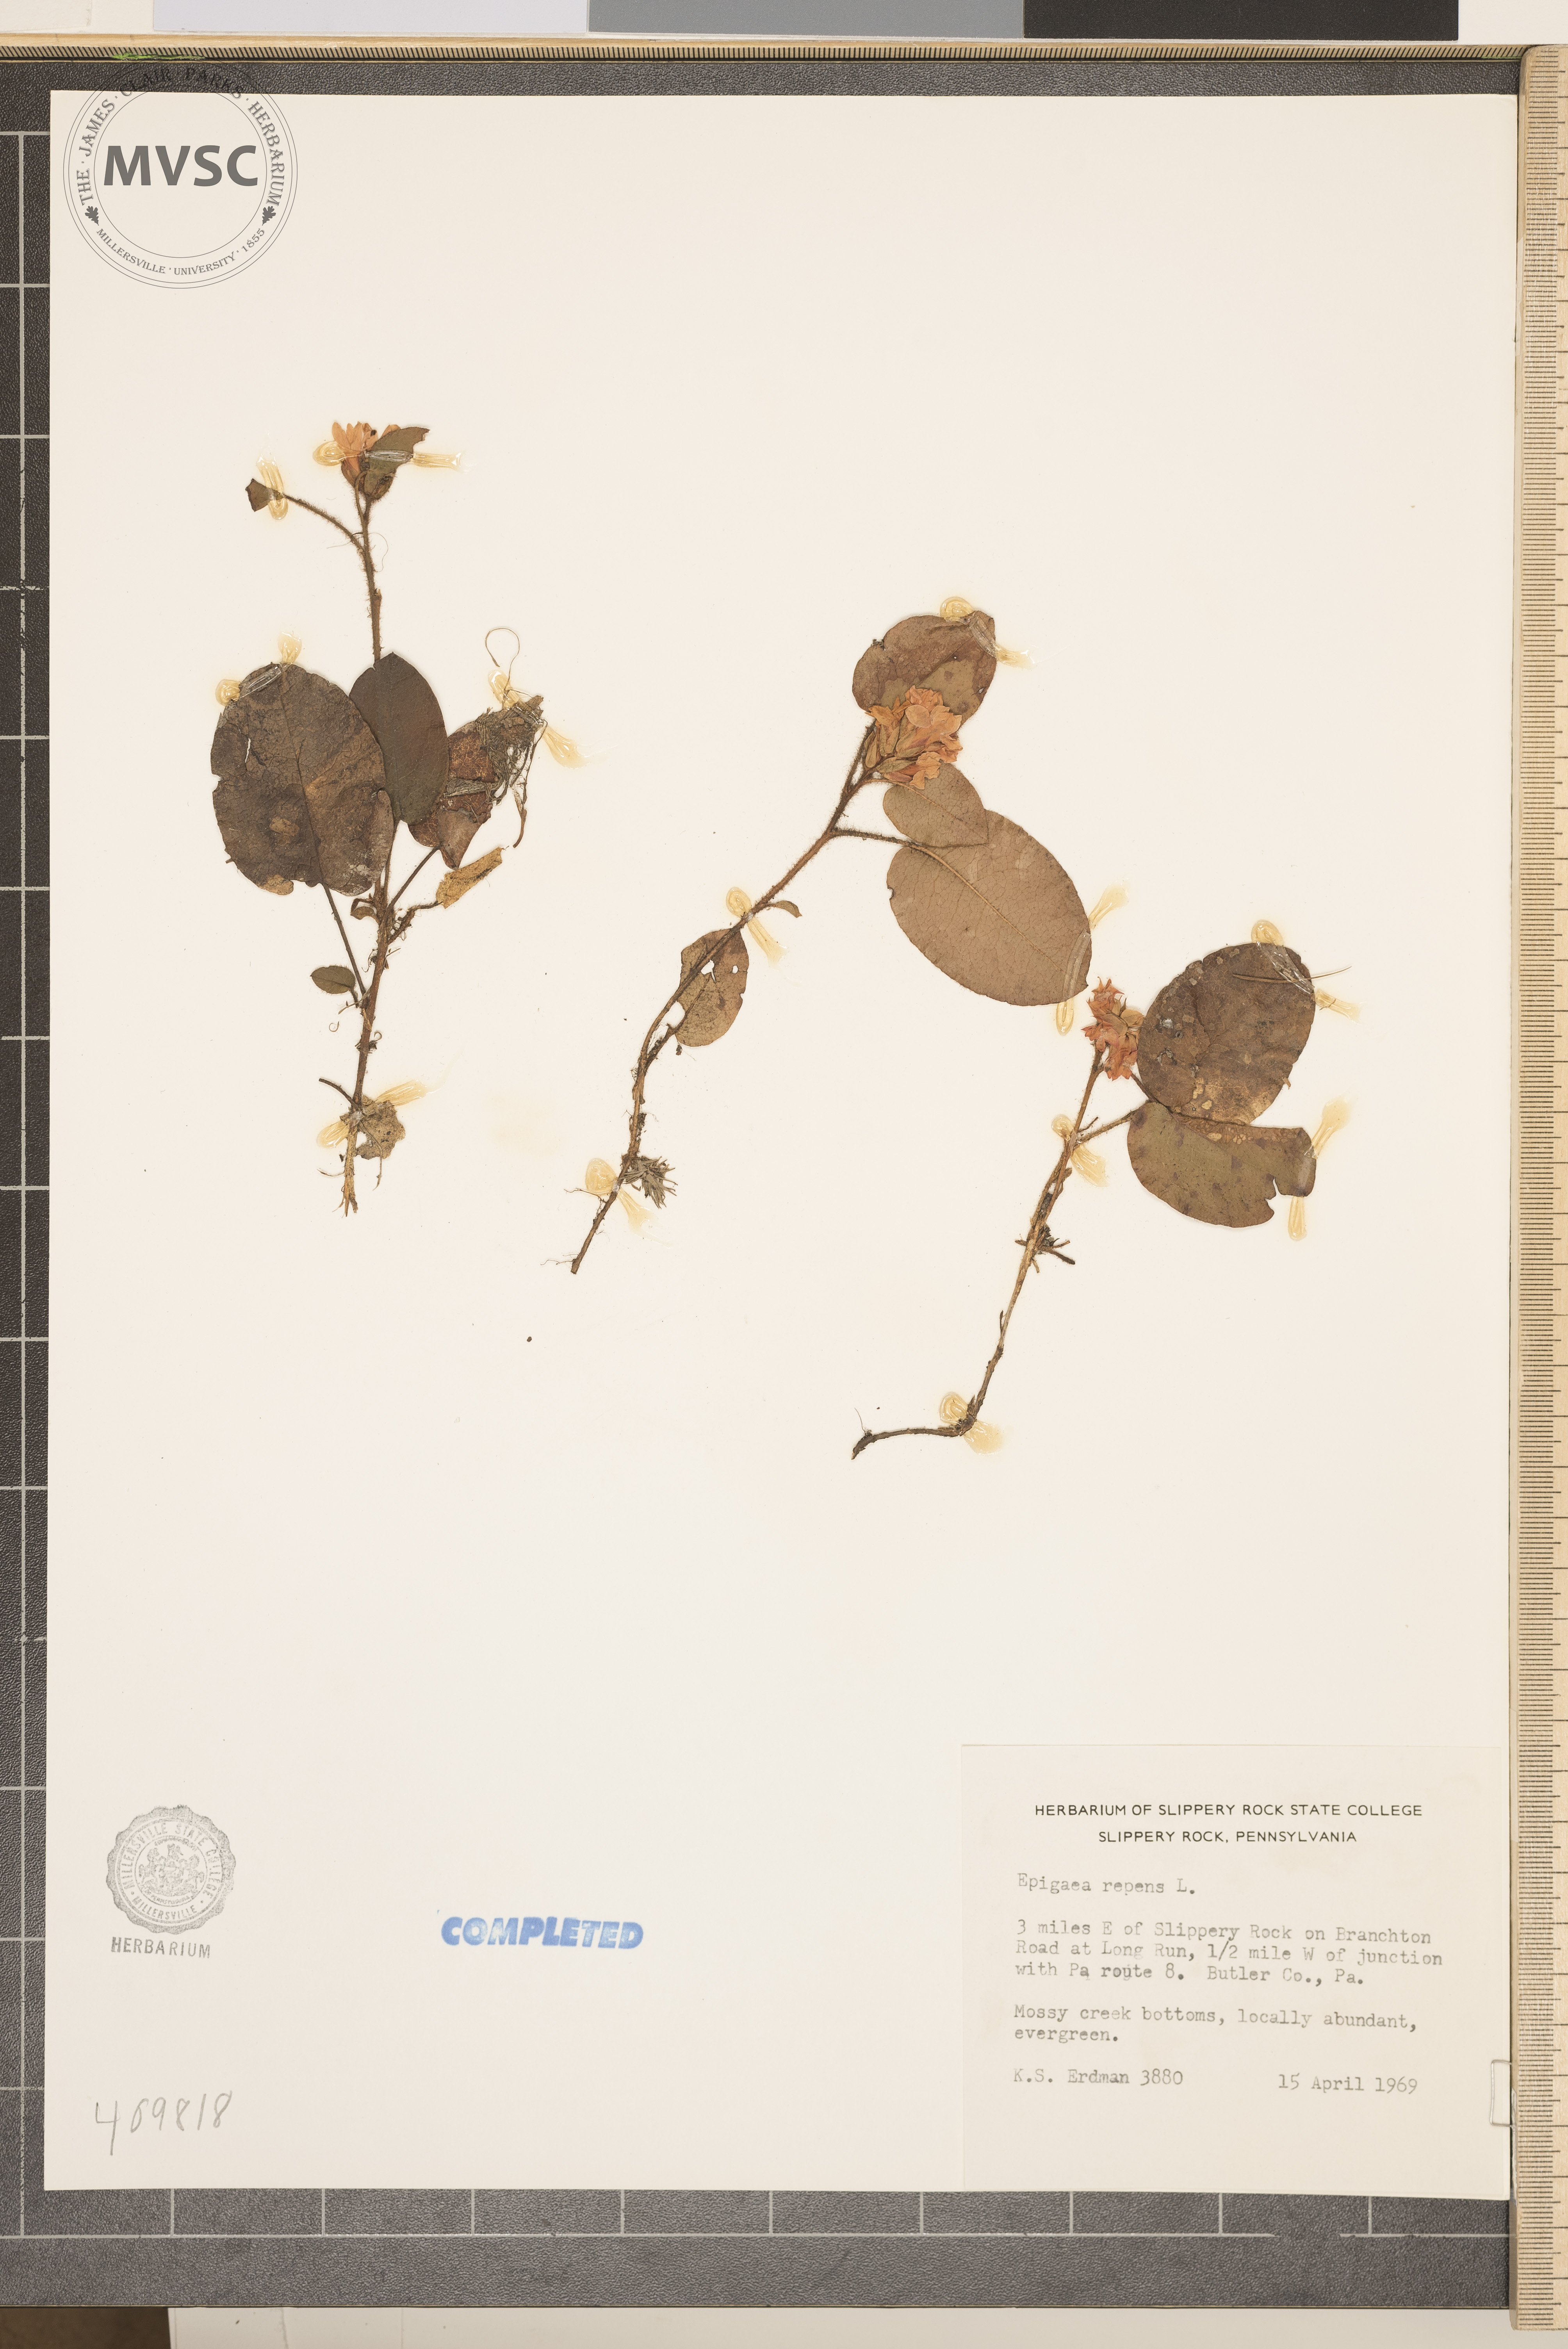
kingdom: Plantae
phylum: Tracheophyta
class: Magnoliopsida
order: Ericales
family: Ericaceae
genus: Epigaea
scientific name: Epigaea repens
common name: Gravelroot
